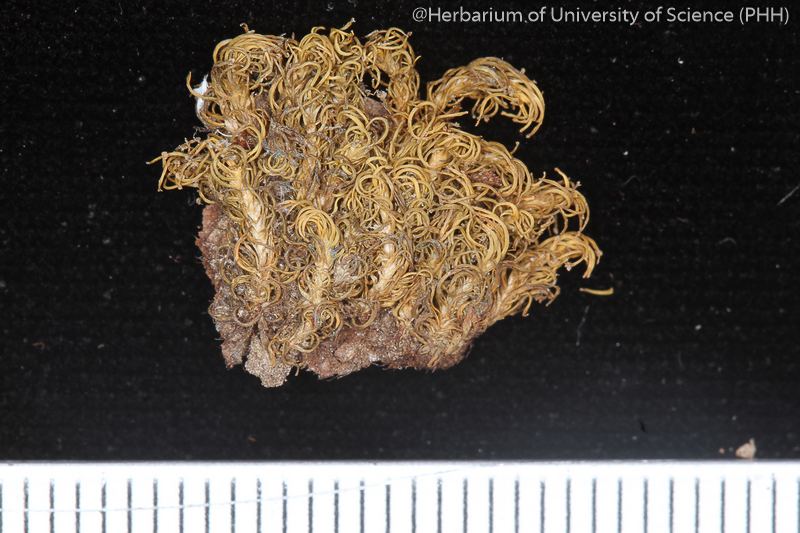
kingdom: Plantae
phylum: Bryophyta
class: Bryopsida
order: Dicranales
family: Calymperaceae
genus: Calymperes
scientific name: Calymperes afzelii
